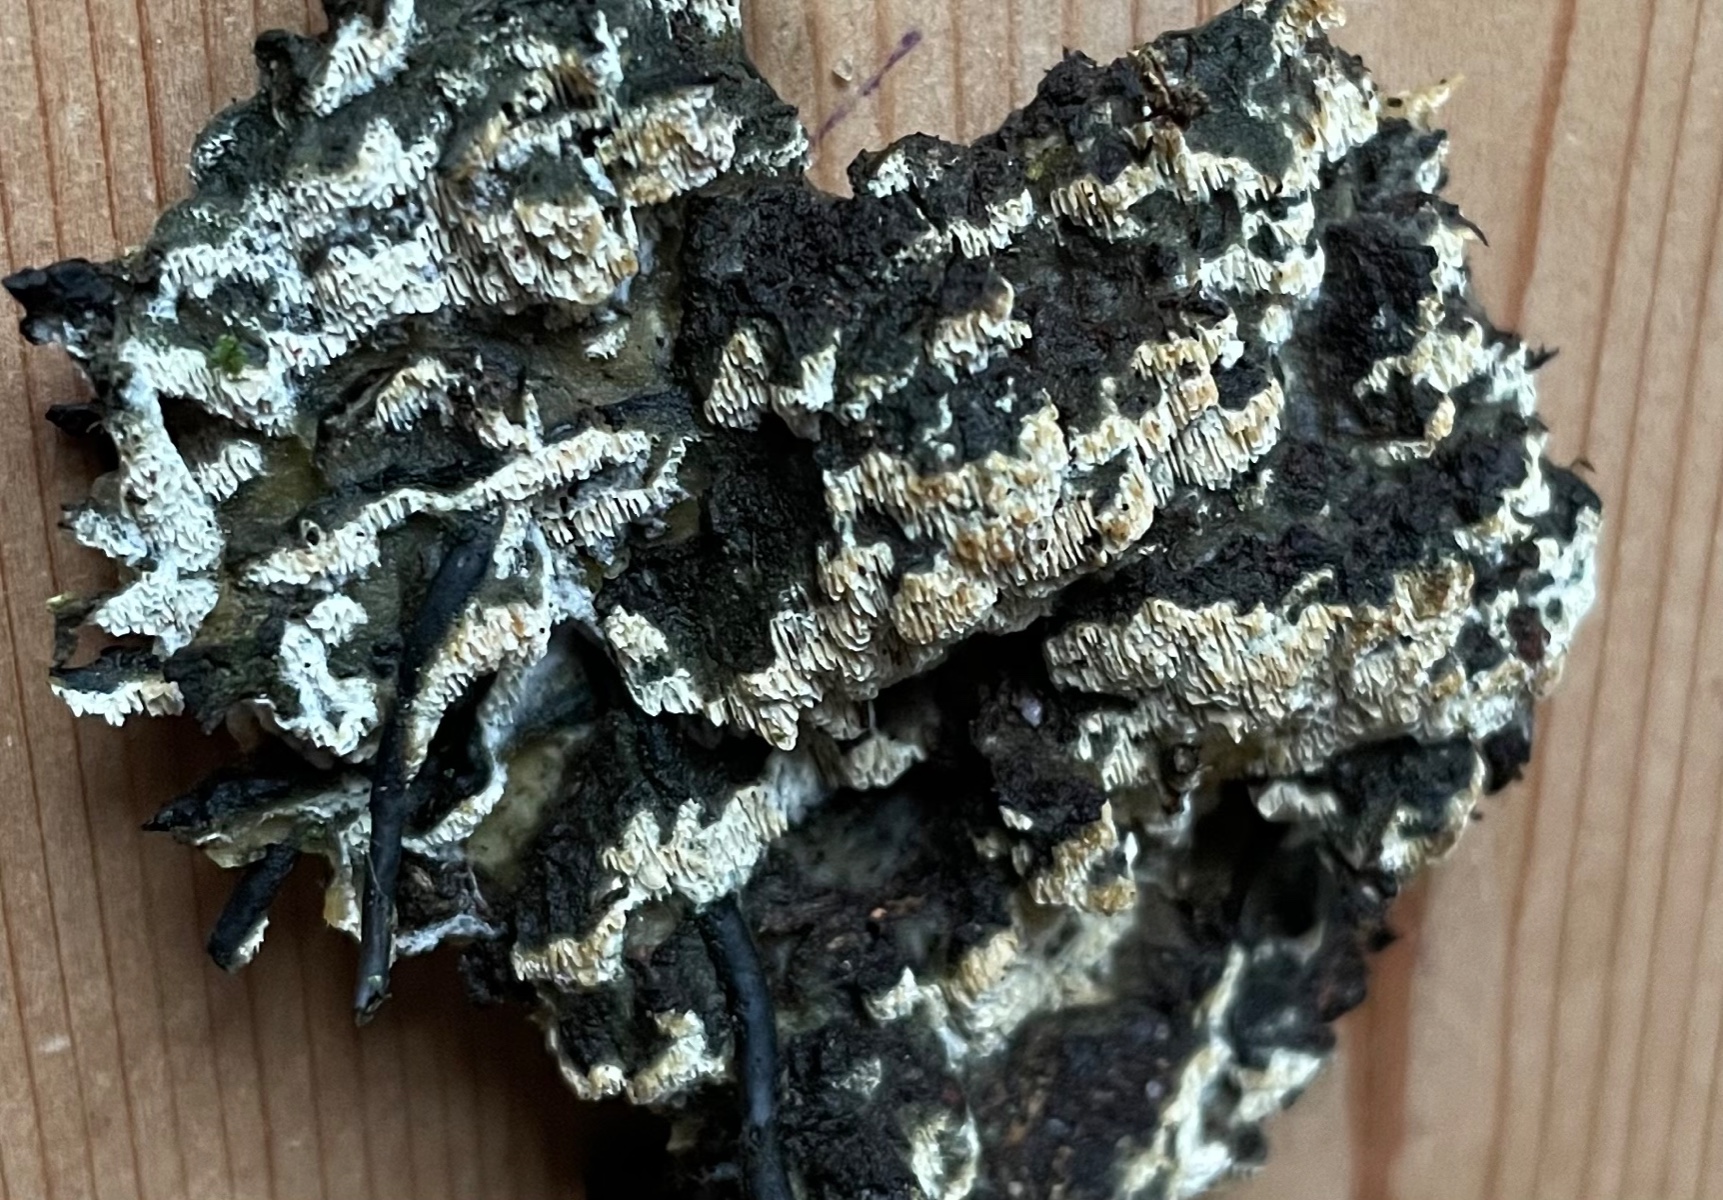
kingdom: Fungi
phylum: Basidiomycota
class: Agaricomycetes
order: Hymenochaetales
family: Schizoporaceae
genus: Schizopora
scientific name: Schizopora paradoxa
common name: hvid tandsvamp
